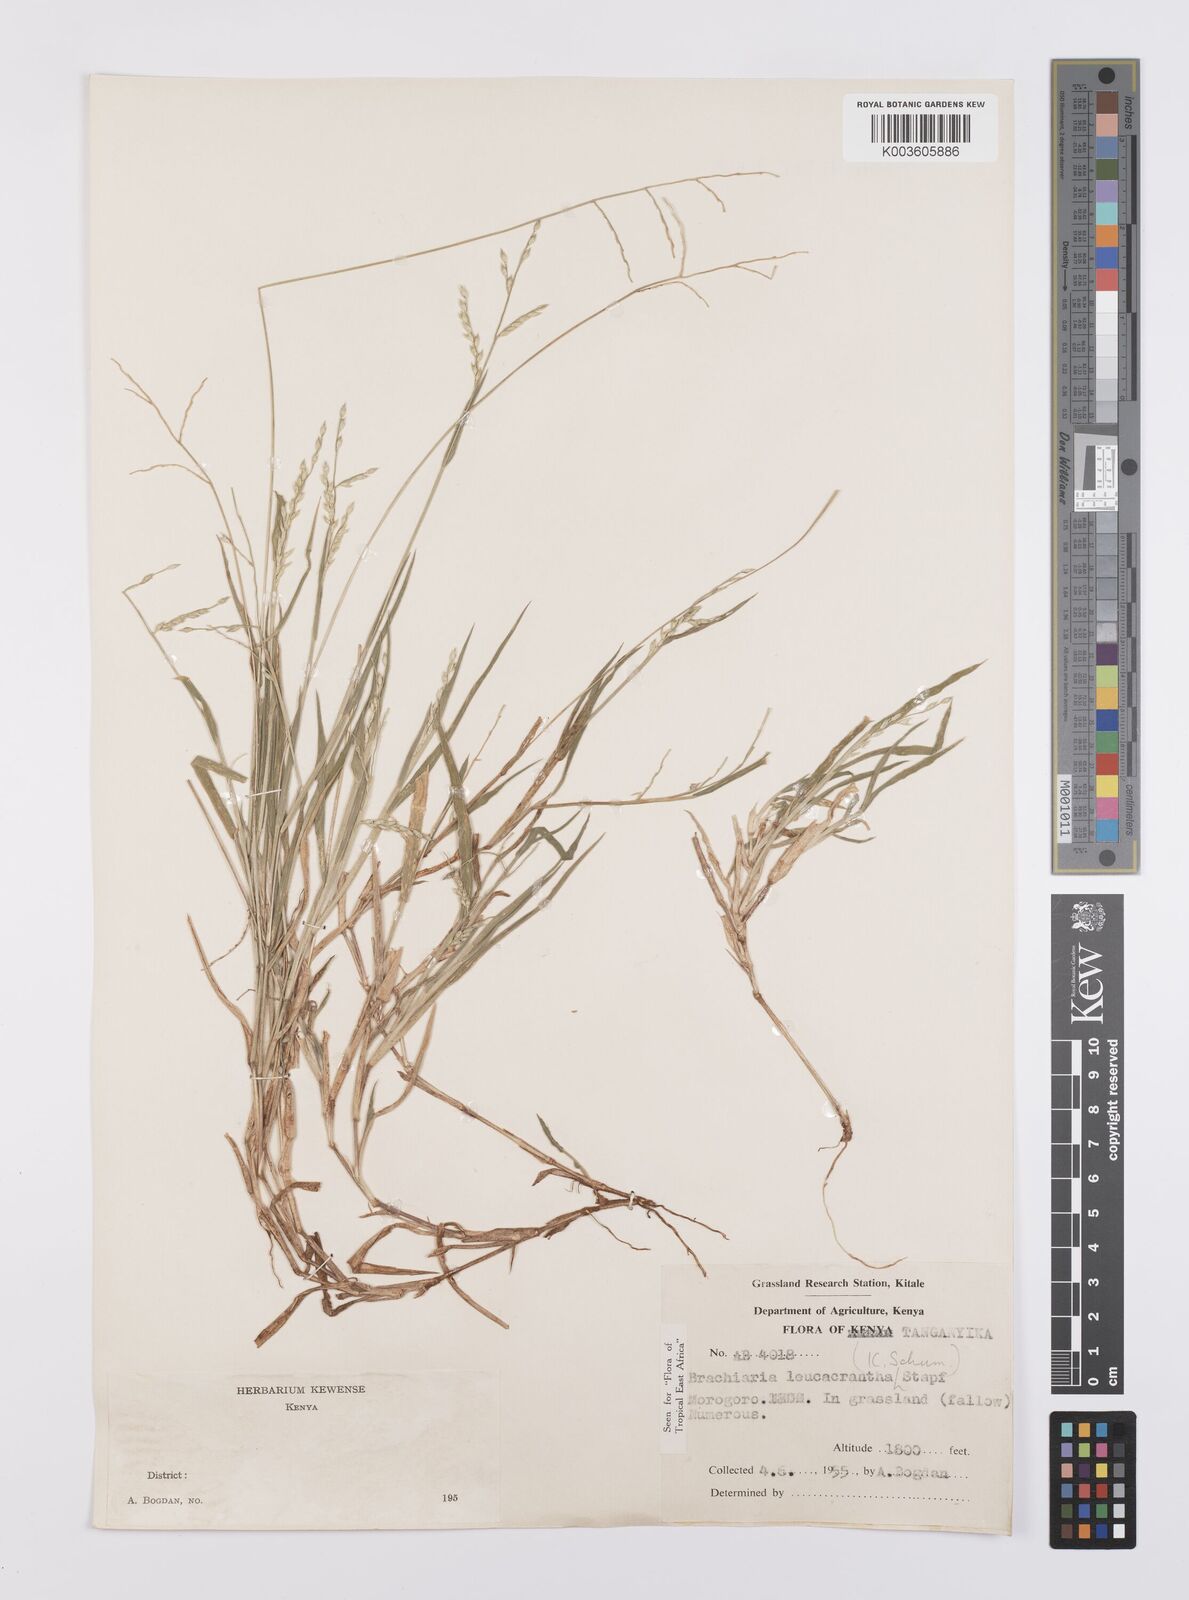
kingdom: Plantae
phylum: Tracheophyta
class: Liliopsida
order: Poales
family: Poaceae
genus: Urochloa
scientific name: Urochloa xantholeuca
